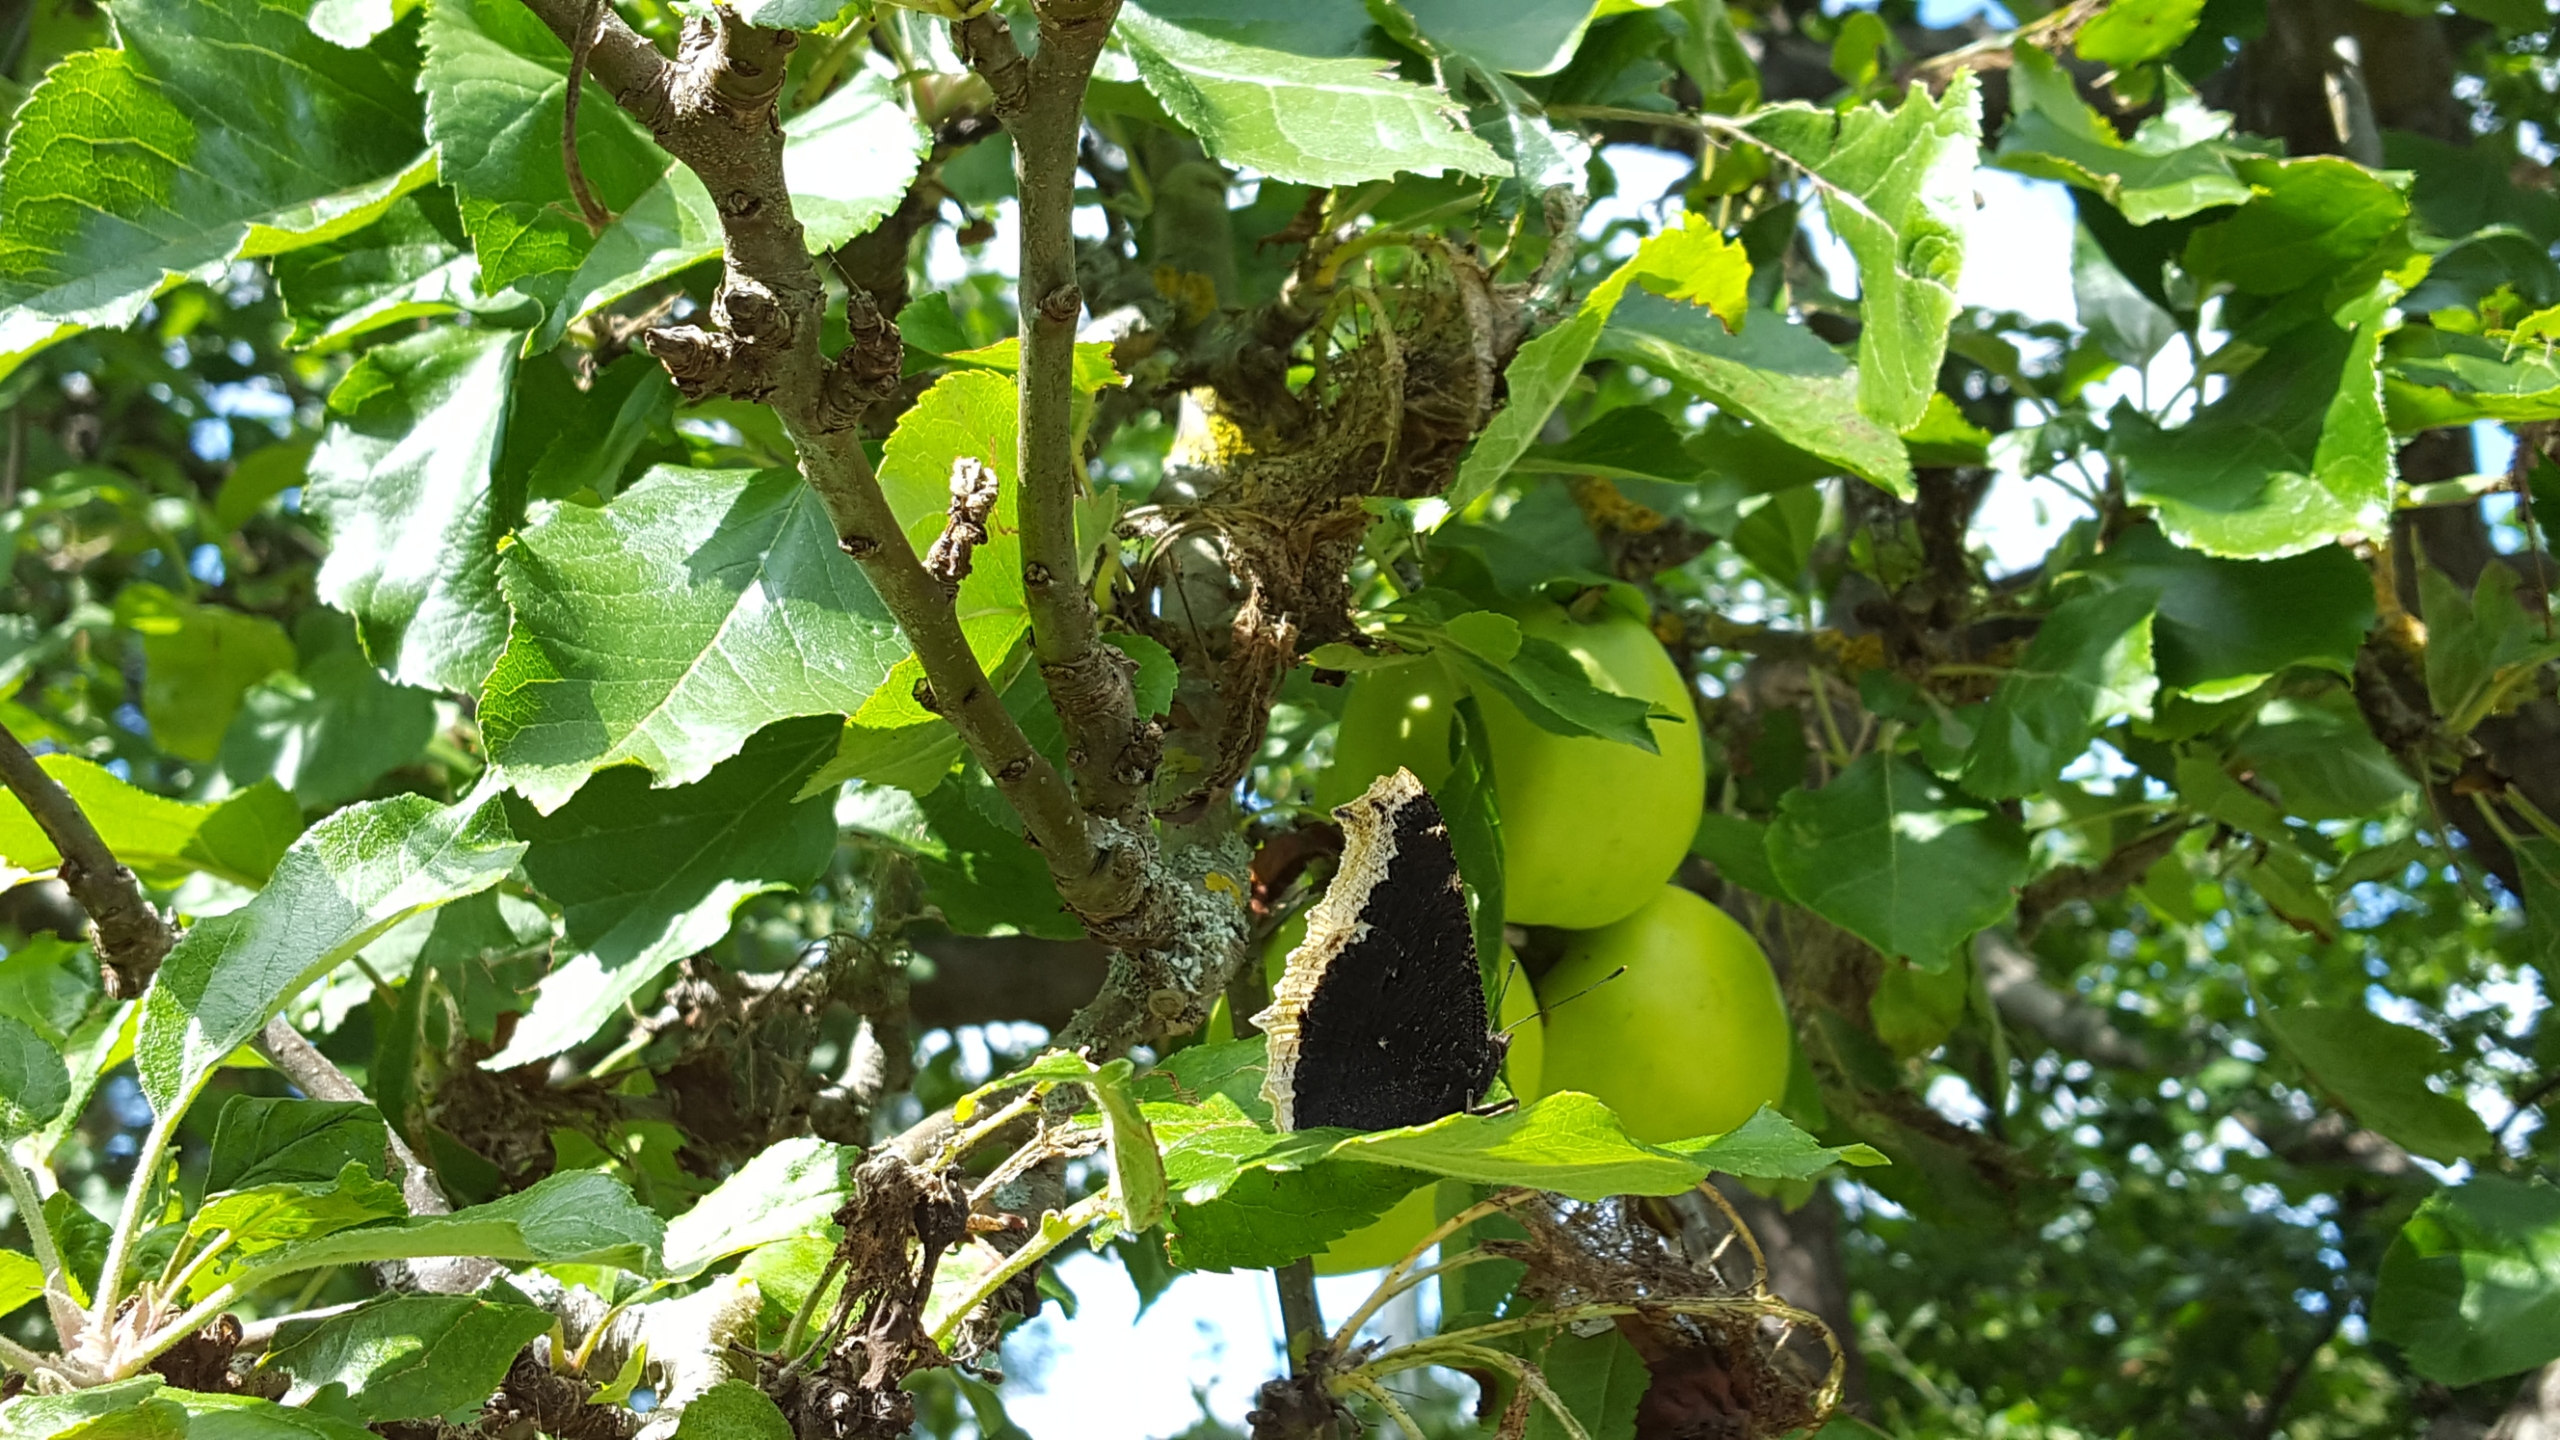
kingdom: Animalia
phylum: Arthropoda
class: Insecta
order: Lepidoptera
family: Nymphalidae
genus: Nymphalis
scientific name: Nymphalis antiopa
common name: Sørgekåbe
